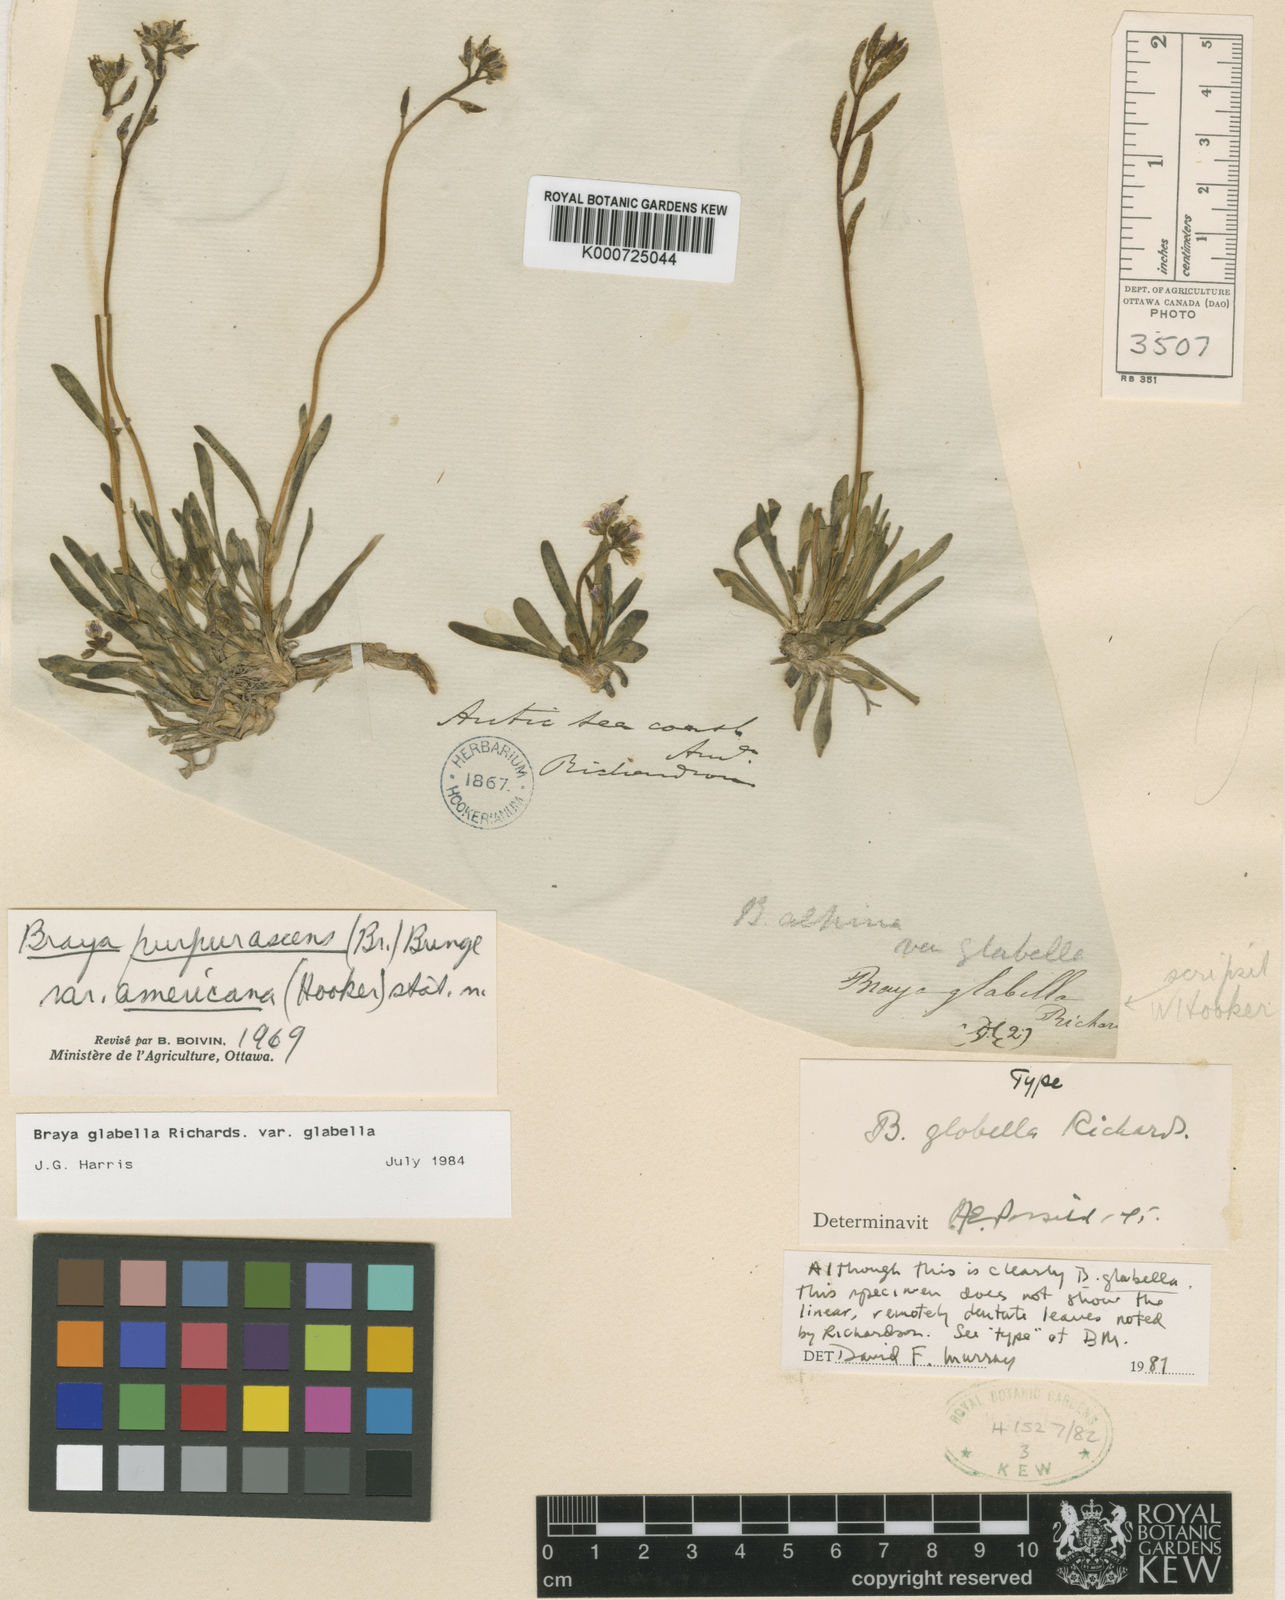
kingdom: Plantae
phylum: Tracheophyta
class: Magnoliopsida
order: Brassicales
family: Brassicaceae
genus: Braya
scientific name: Braya glabella
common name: Smooth braya
